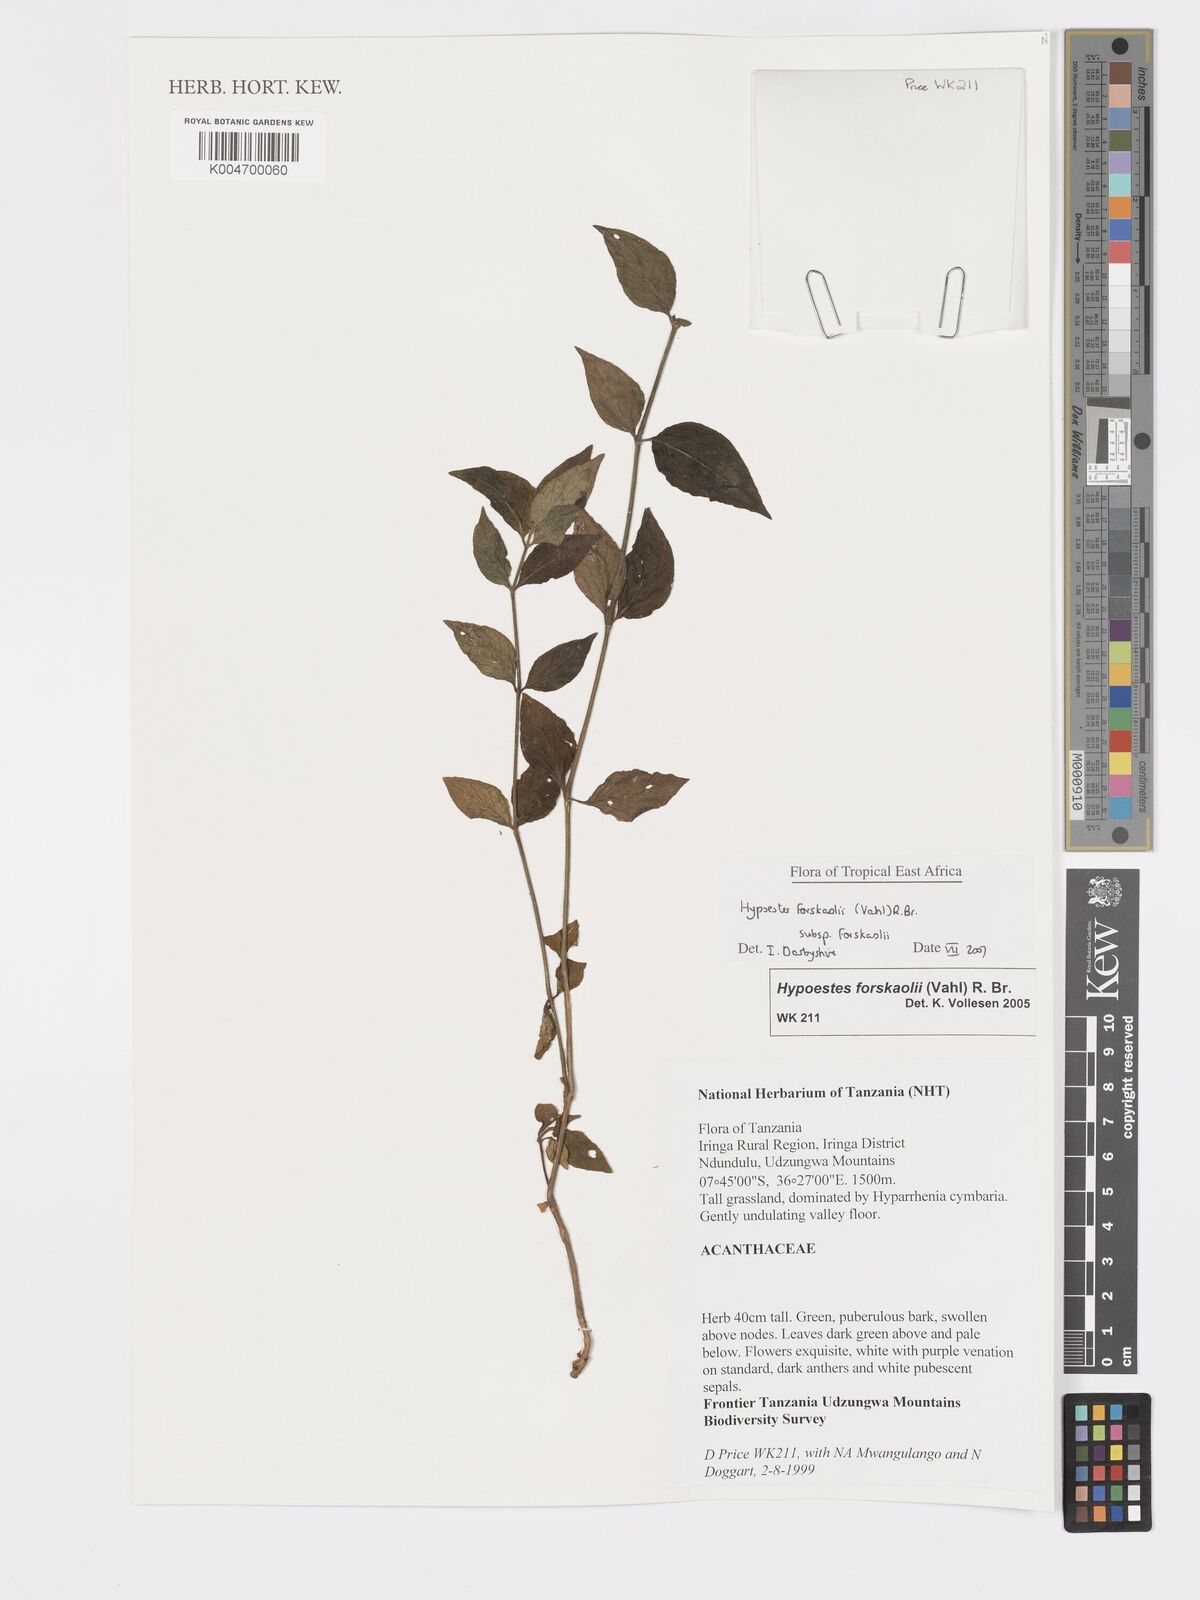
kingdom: Plantae
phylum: Tracheophyta
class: Magnoliopsida
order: Lamiales
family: Acanthaceae
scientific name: Acanthaceae
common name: Acanthaceae
